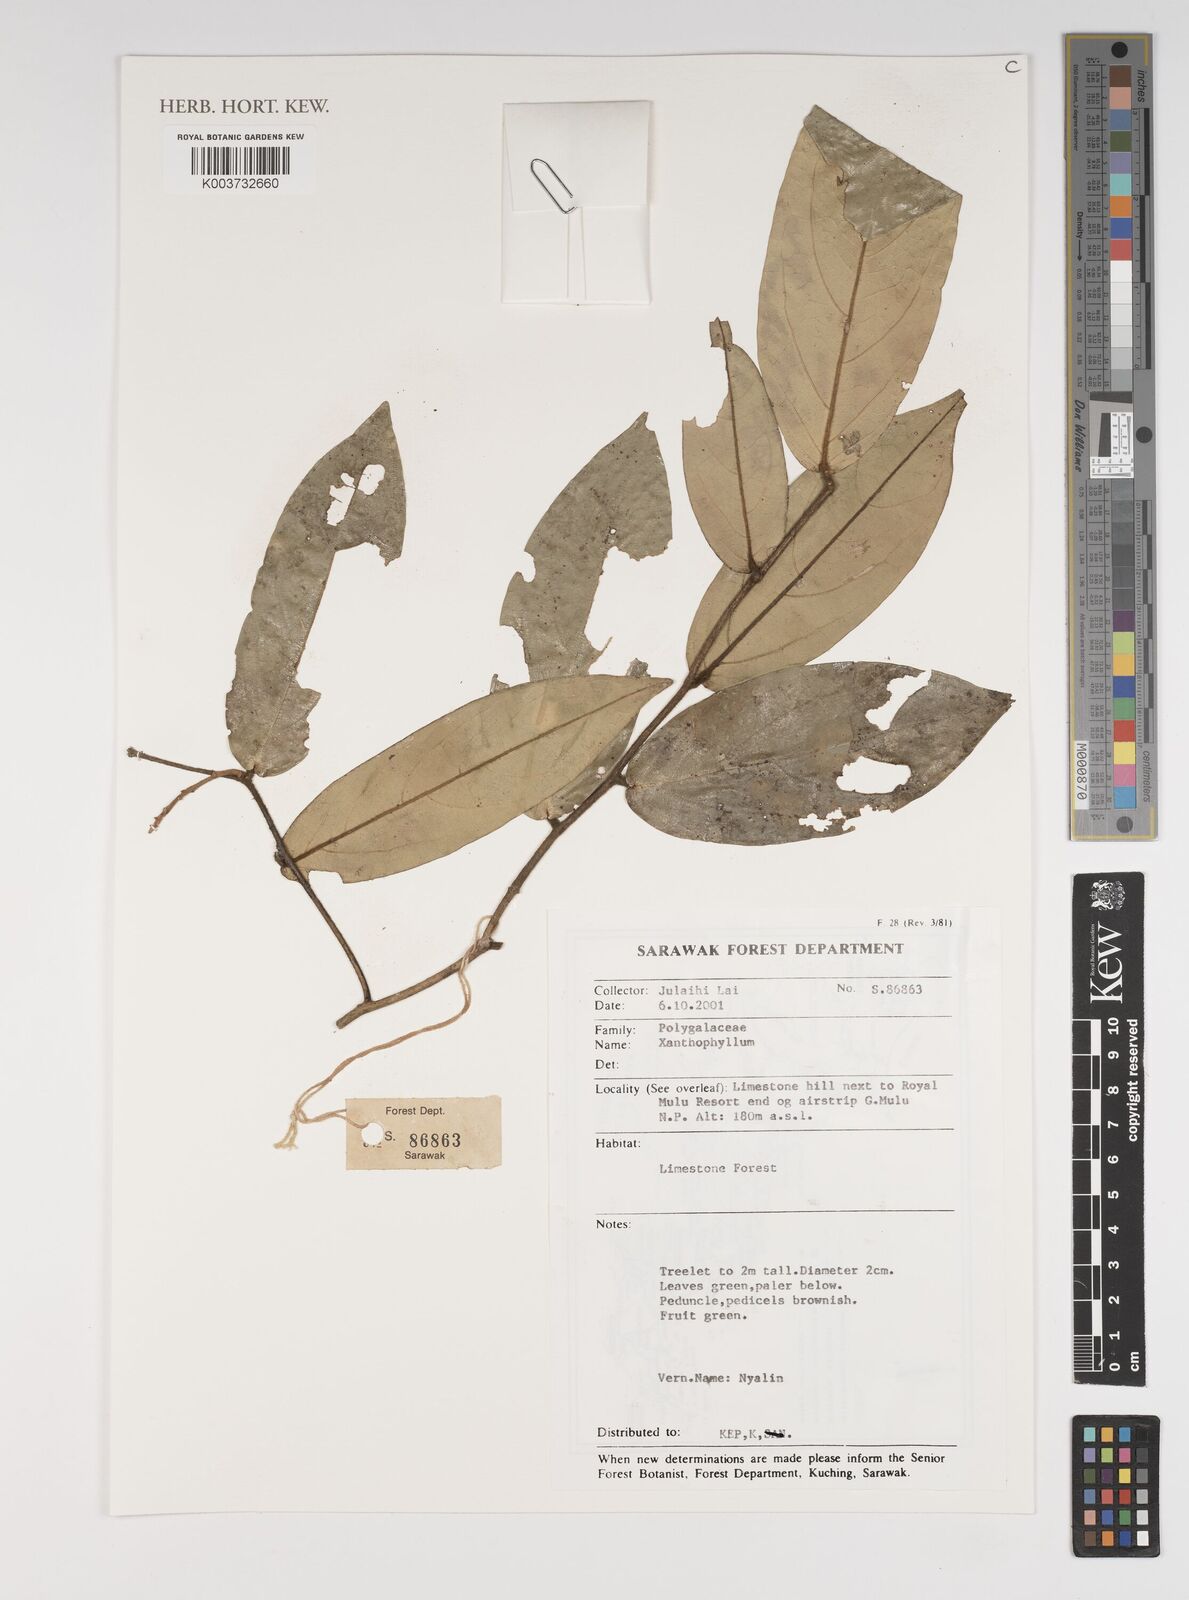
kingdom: Plantae
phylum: Tracheophyta
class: Magnoliopsida
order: Fabales
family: Polygalaceae
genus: Xanthophyllum
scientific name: Xanthophyllum
